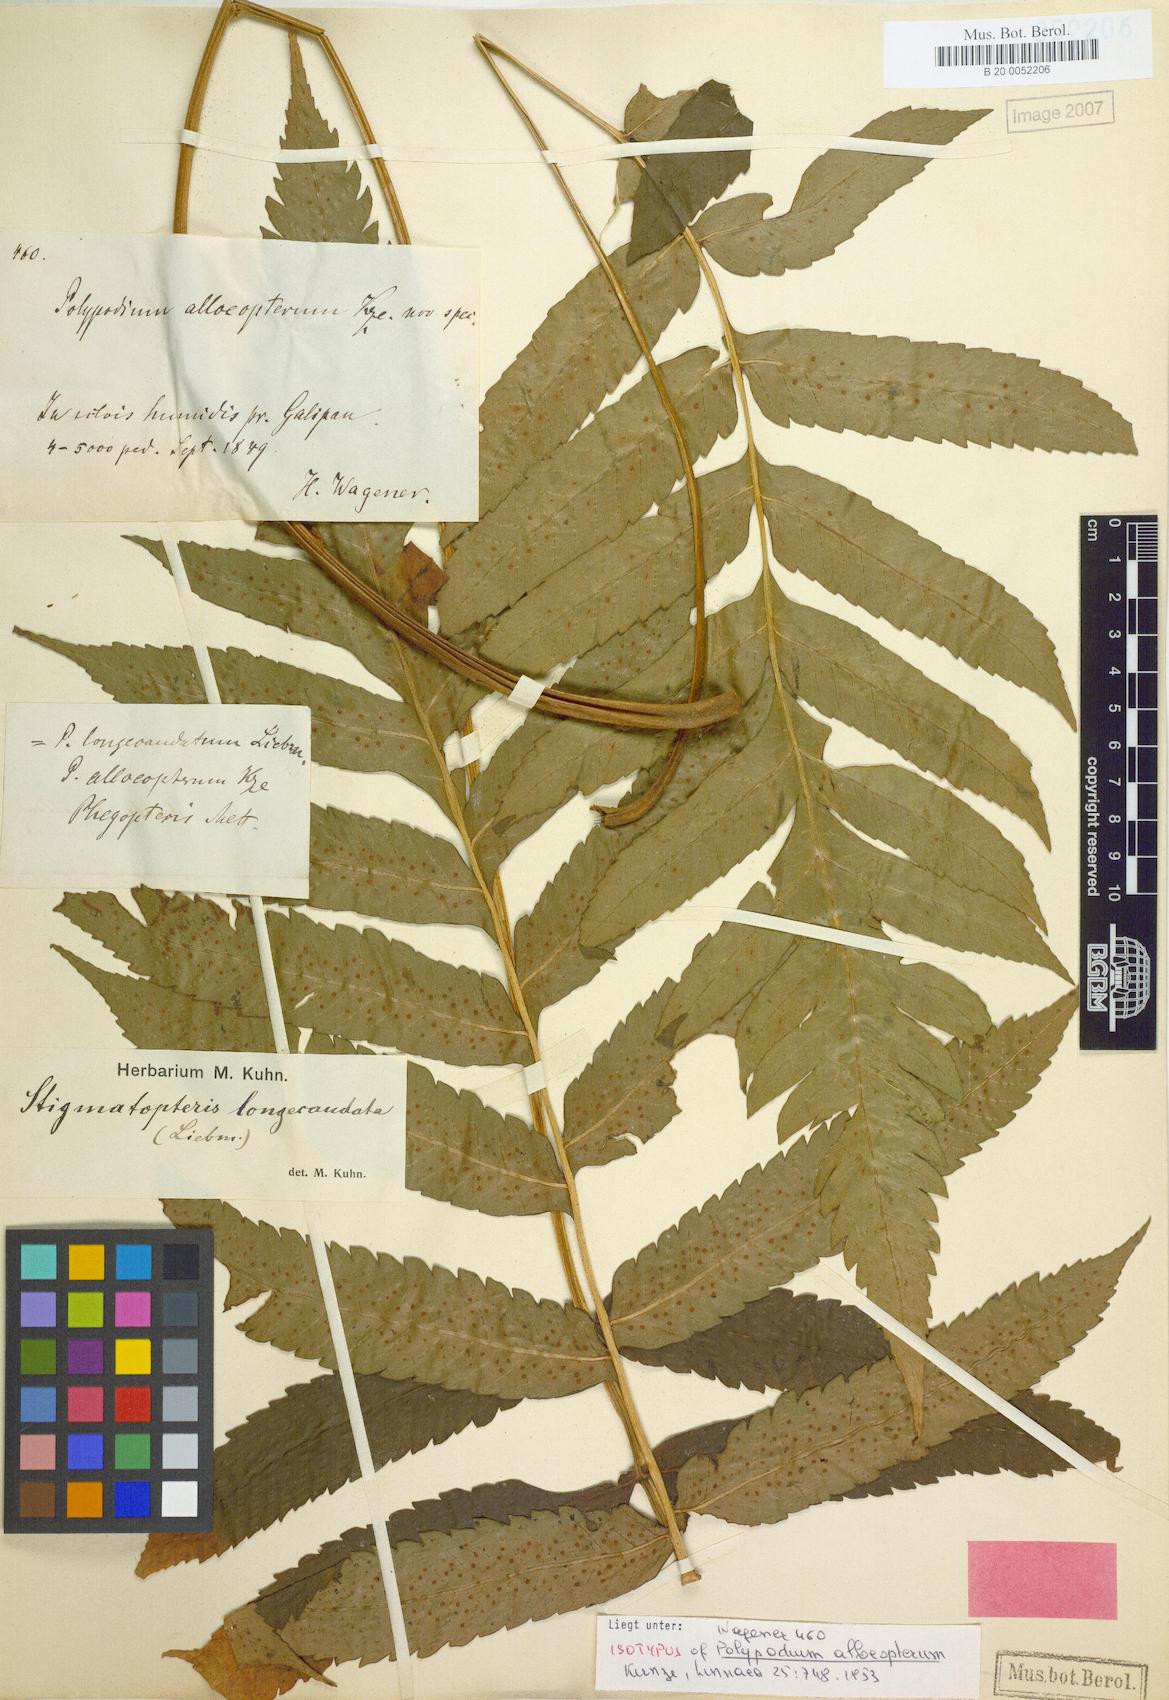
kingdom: Plantae
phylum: Tracheophyta
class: Polypodiopsida
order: Polypodiales
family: Dryopteridaceae
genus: Stigmatopteris
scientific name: Stigmatopteris alloeoptera
